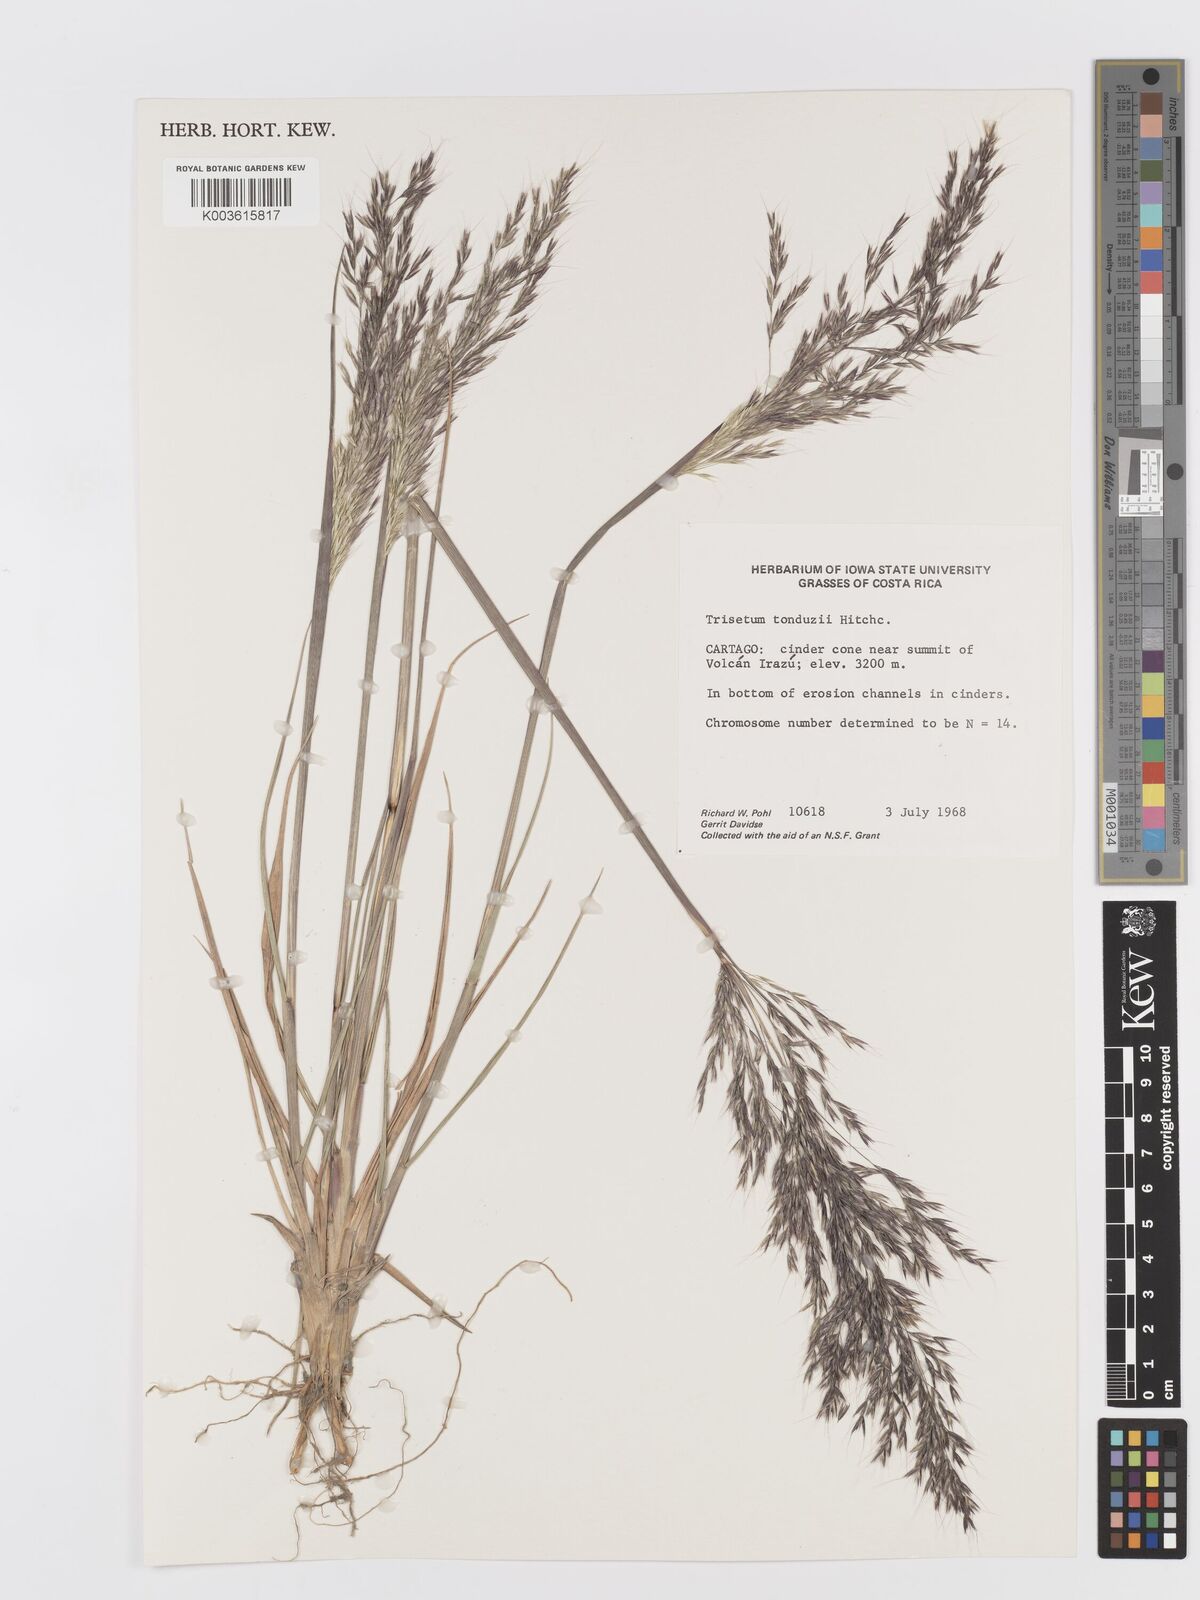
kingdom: Plantae
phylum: Tracheophyta
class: Liliopsida
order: Poales
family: Poaceae
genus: Peyritschia
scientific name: Peyritschia tonduzii
